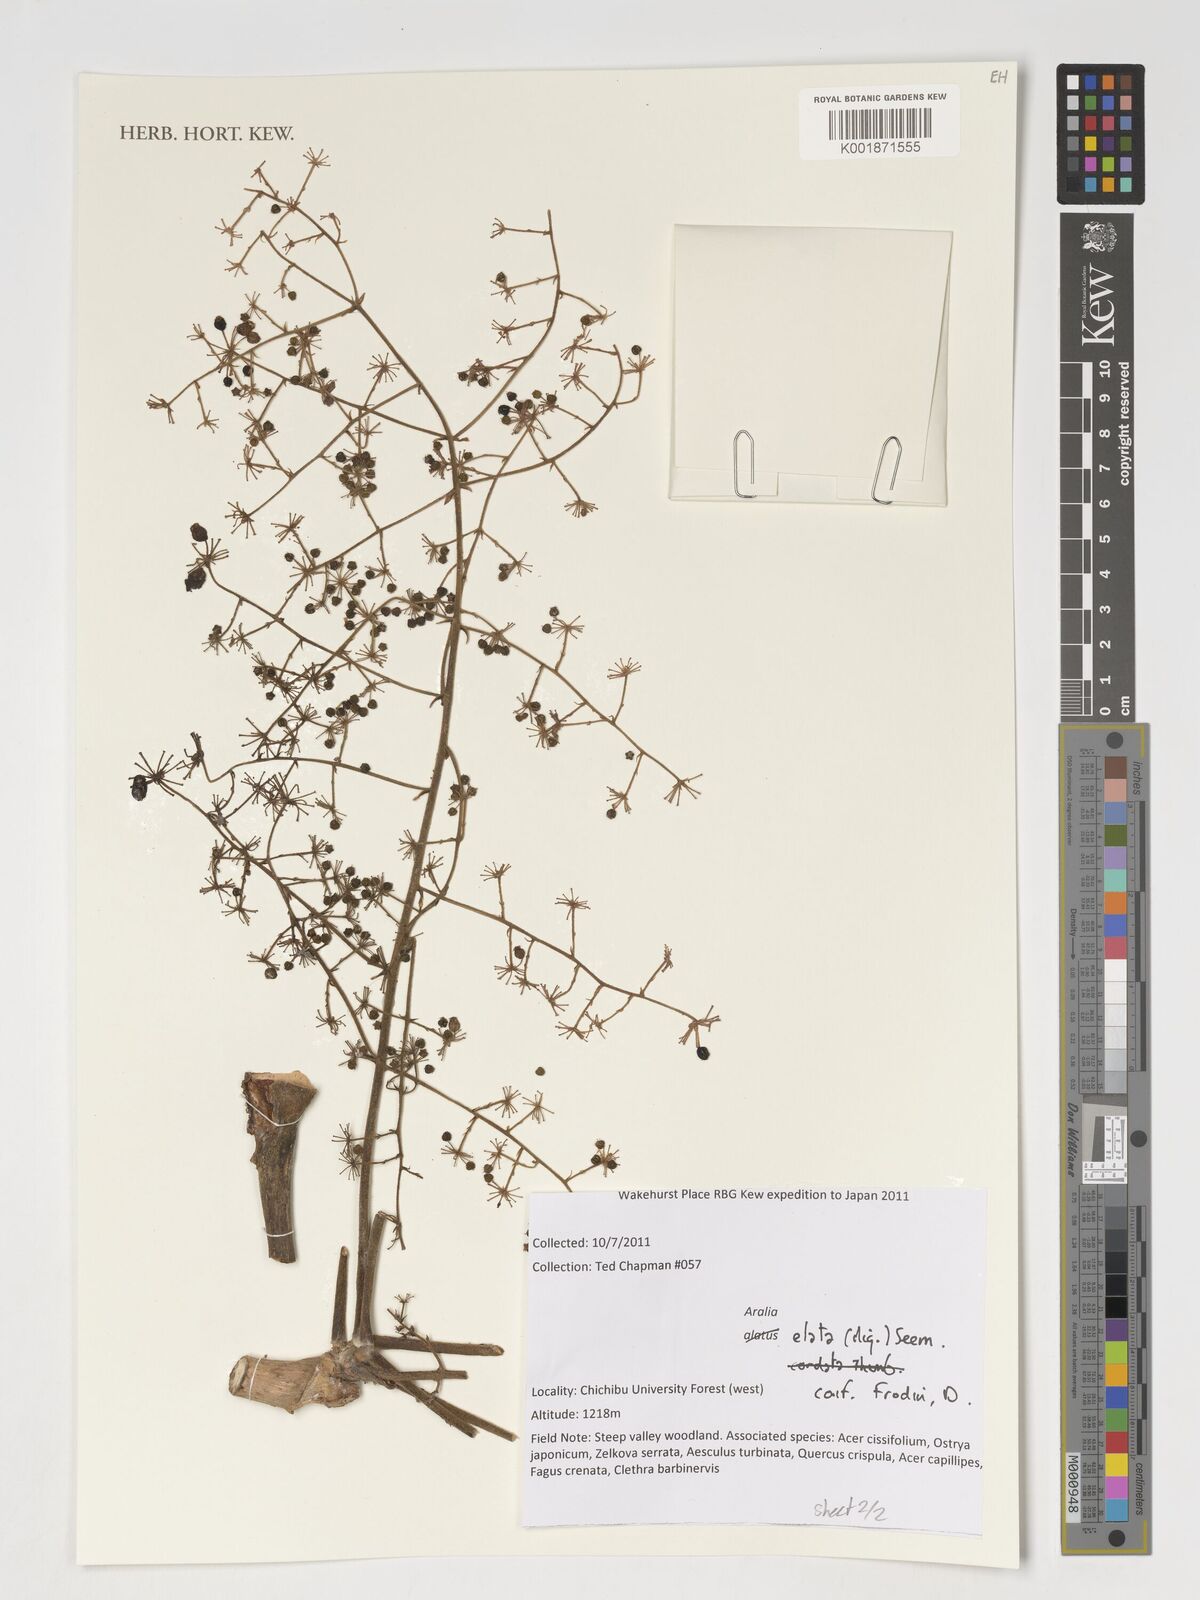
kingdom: Plantae
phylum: Tracheophyta
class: Magnoliopsida
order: Apiales
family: Araliaceae
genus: Aralia
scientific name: Aralia elata
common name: Japanese angelica-tree
